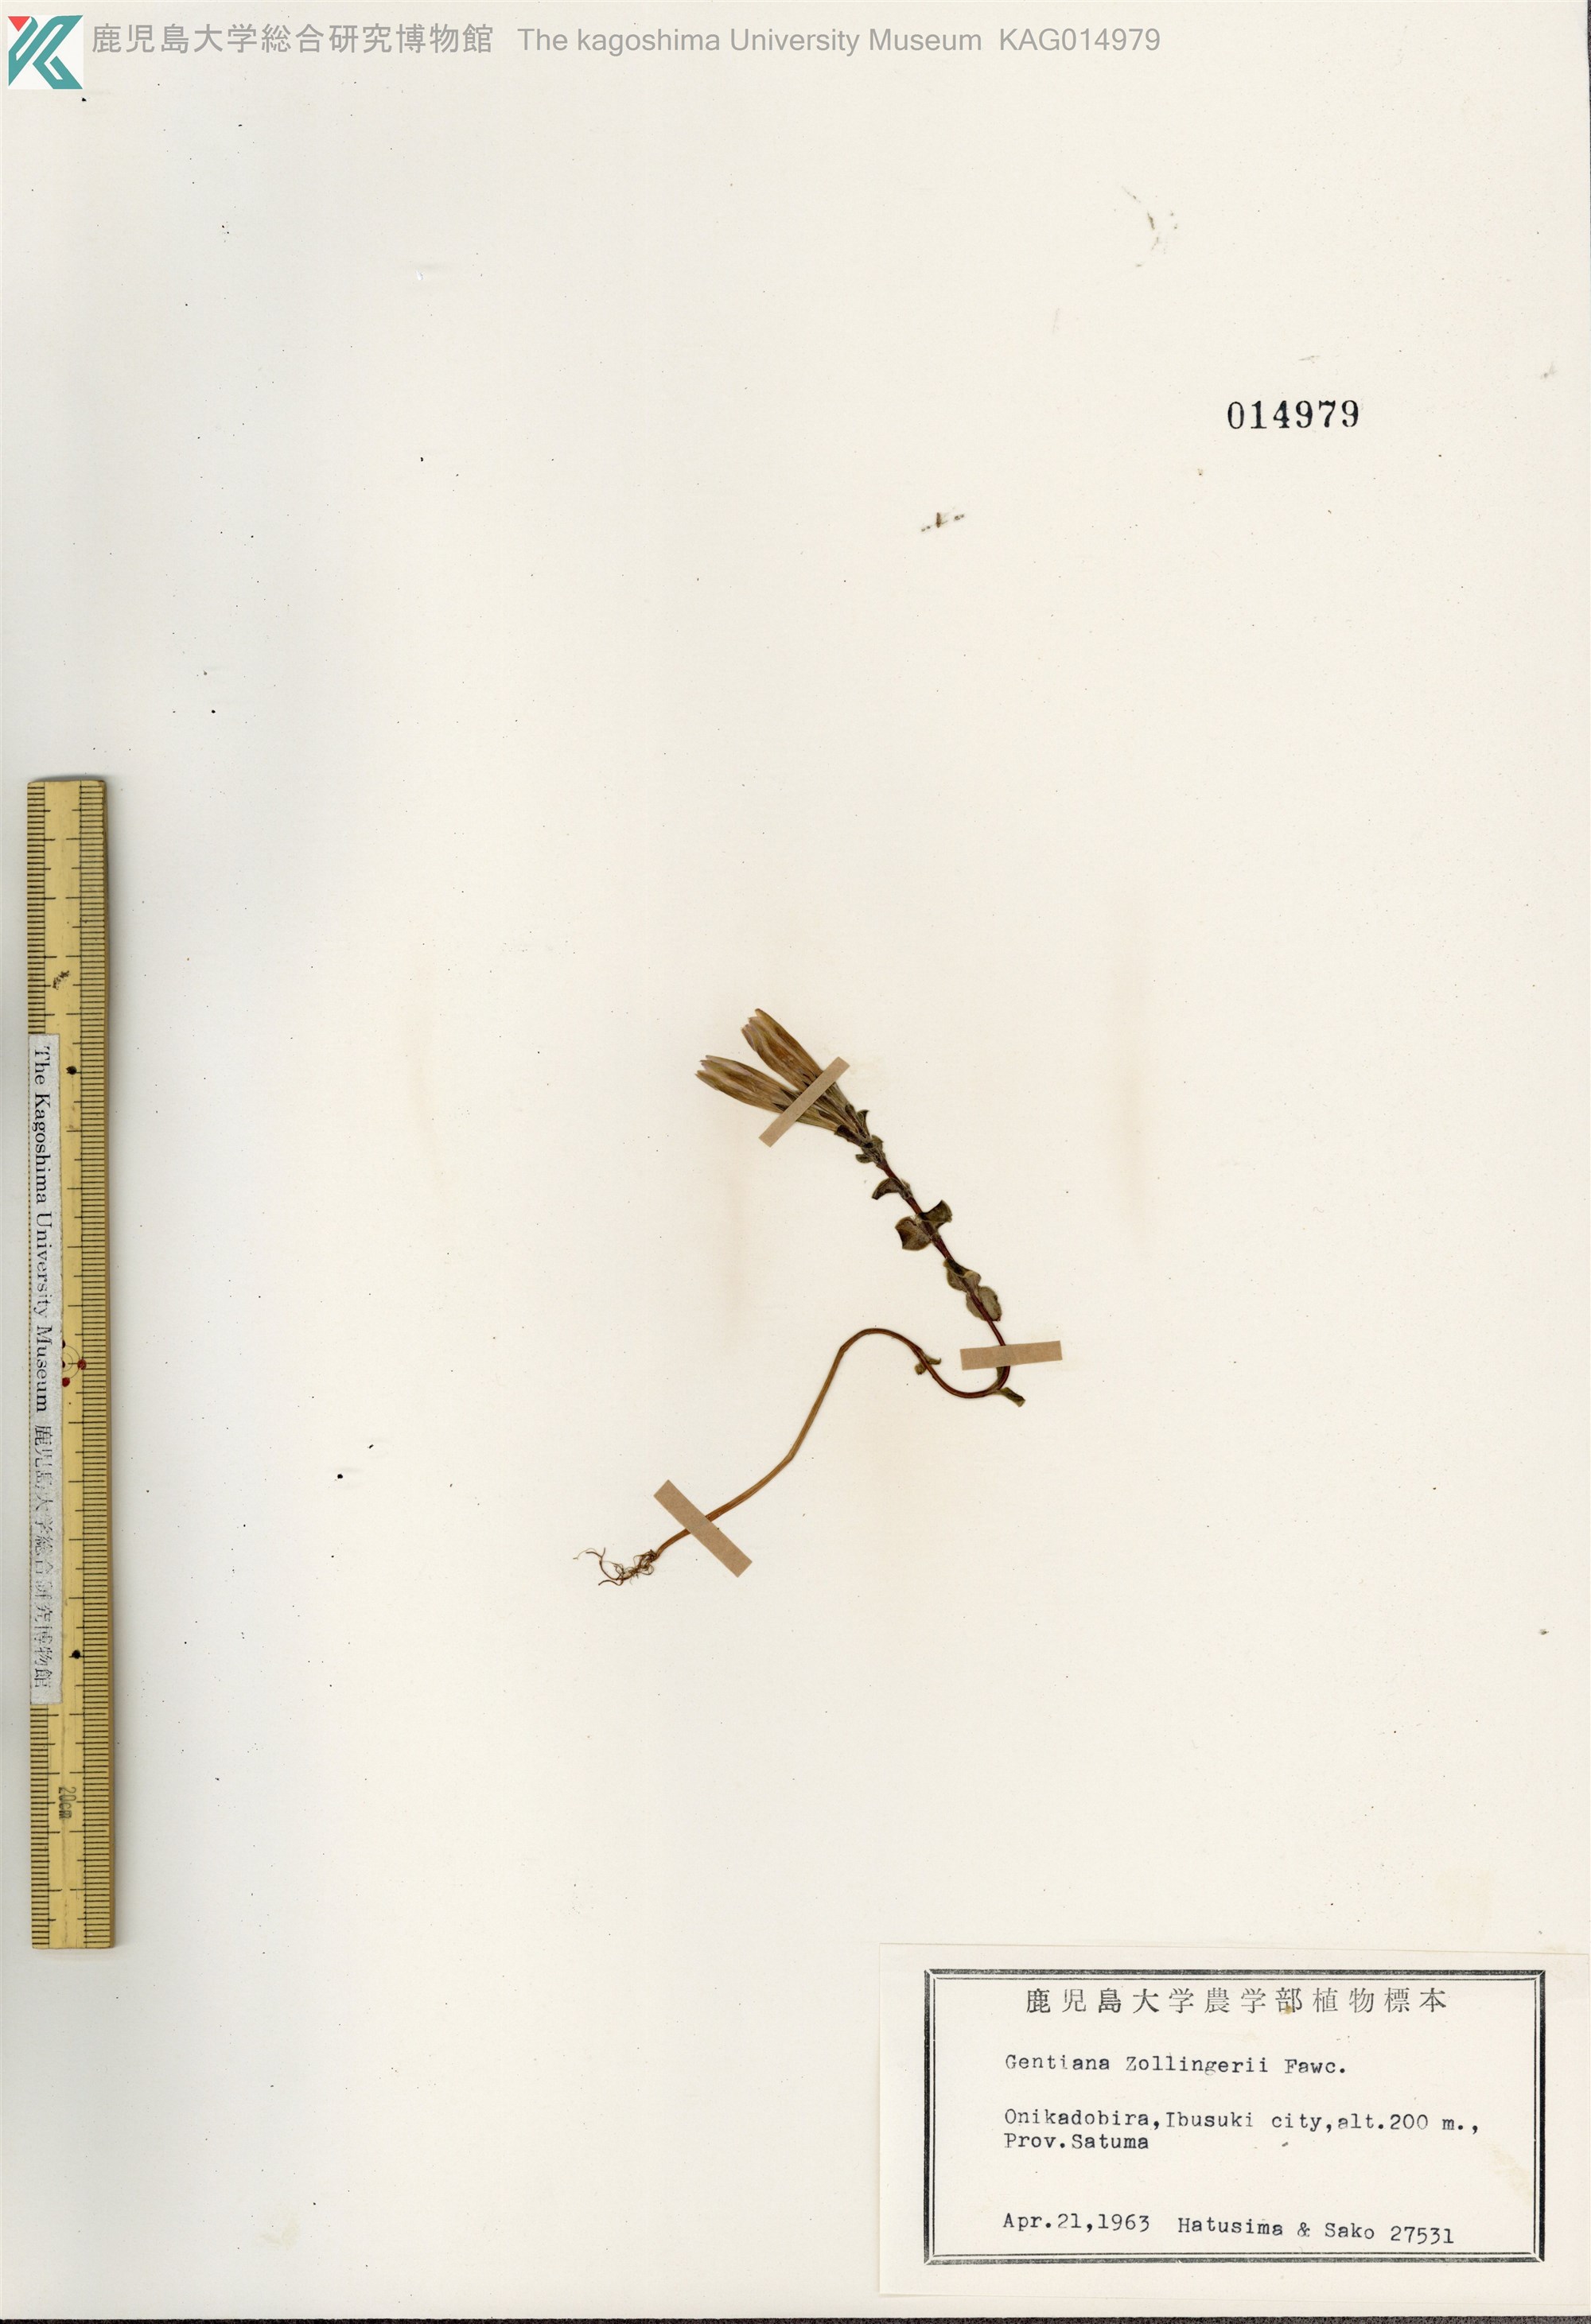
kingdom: Plantae
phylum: Tracheophyta
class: Magnoliopsida
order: Gentianales
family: Gentianaceae
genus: Gentiana
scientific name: Gentiana zollingeri
